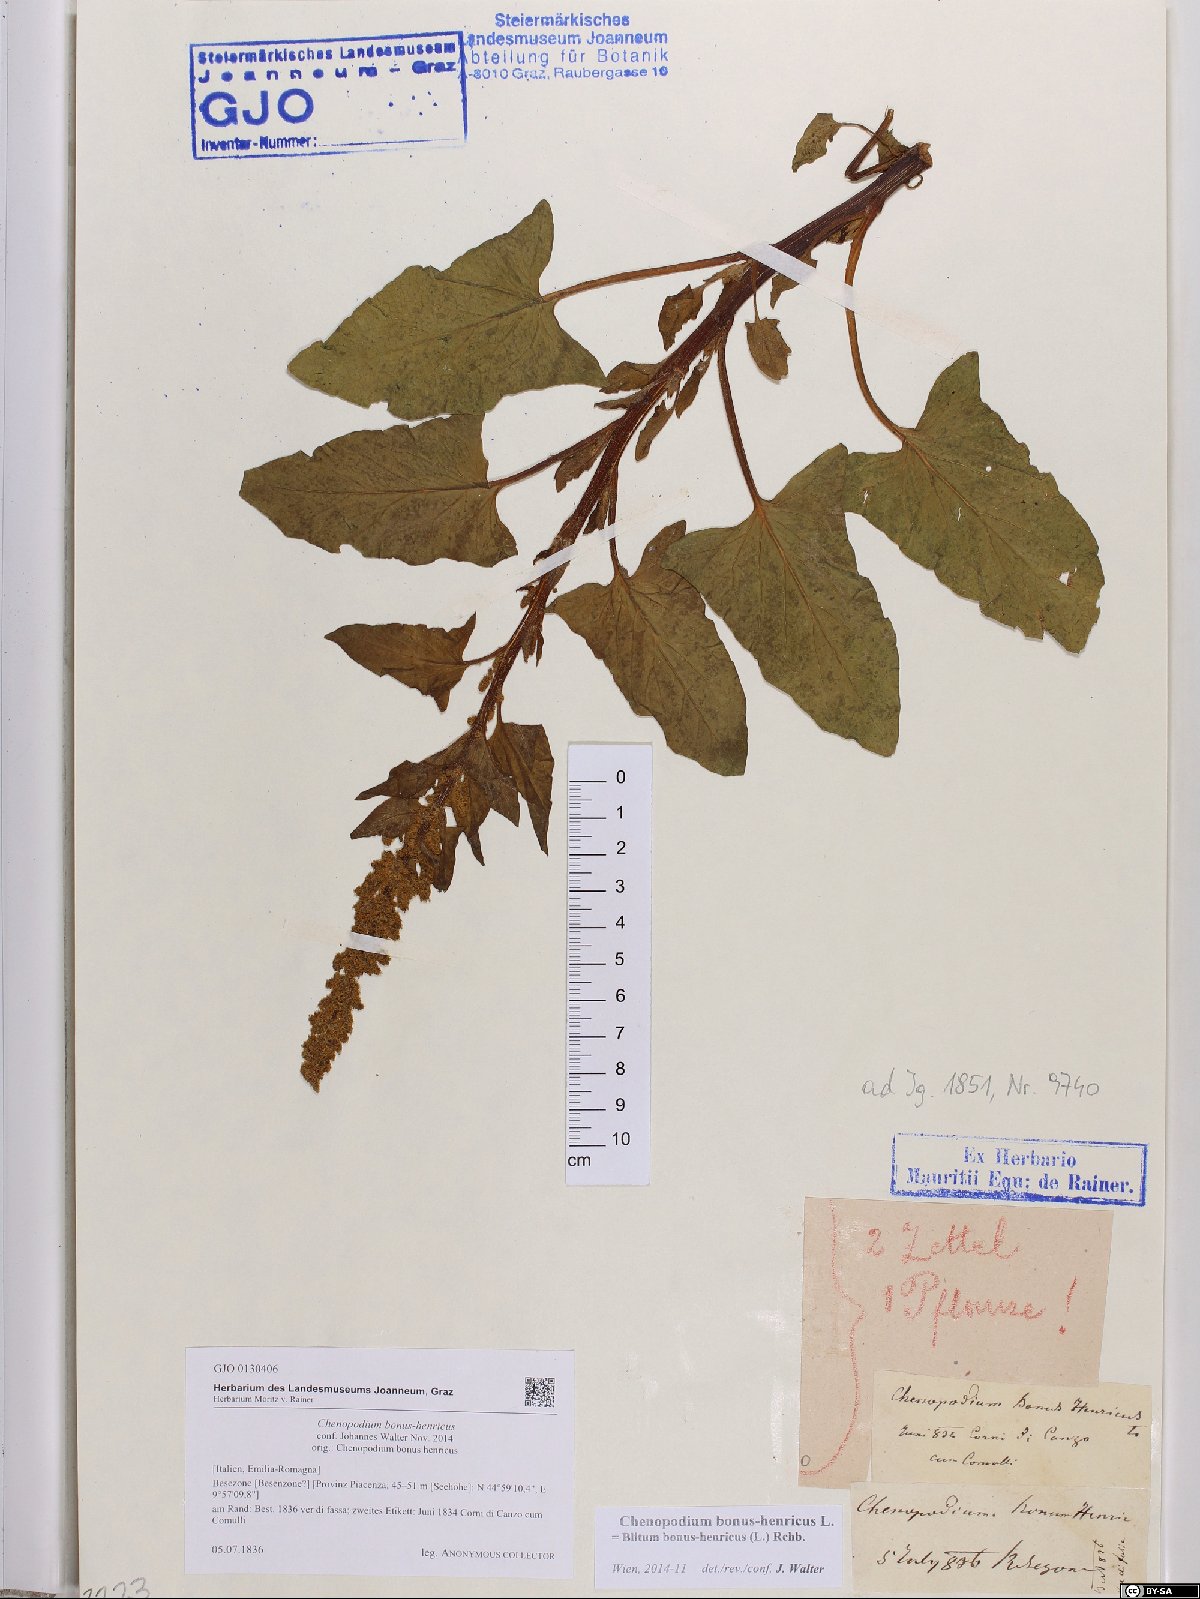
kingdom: Plantae
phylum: Tracheophyta
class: Magnoliopsida
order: Caryophyllales
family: Amaranthaceae
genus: Blitum
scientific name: Blitum bonus-henricus
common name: Good king henry
